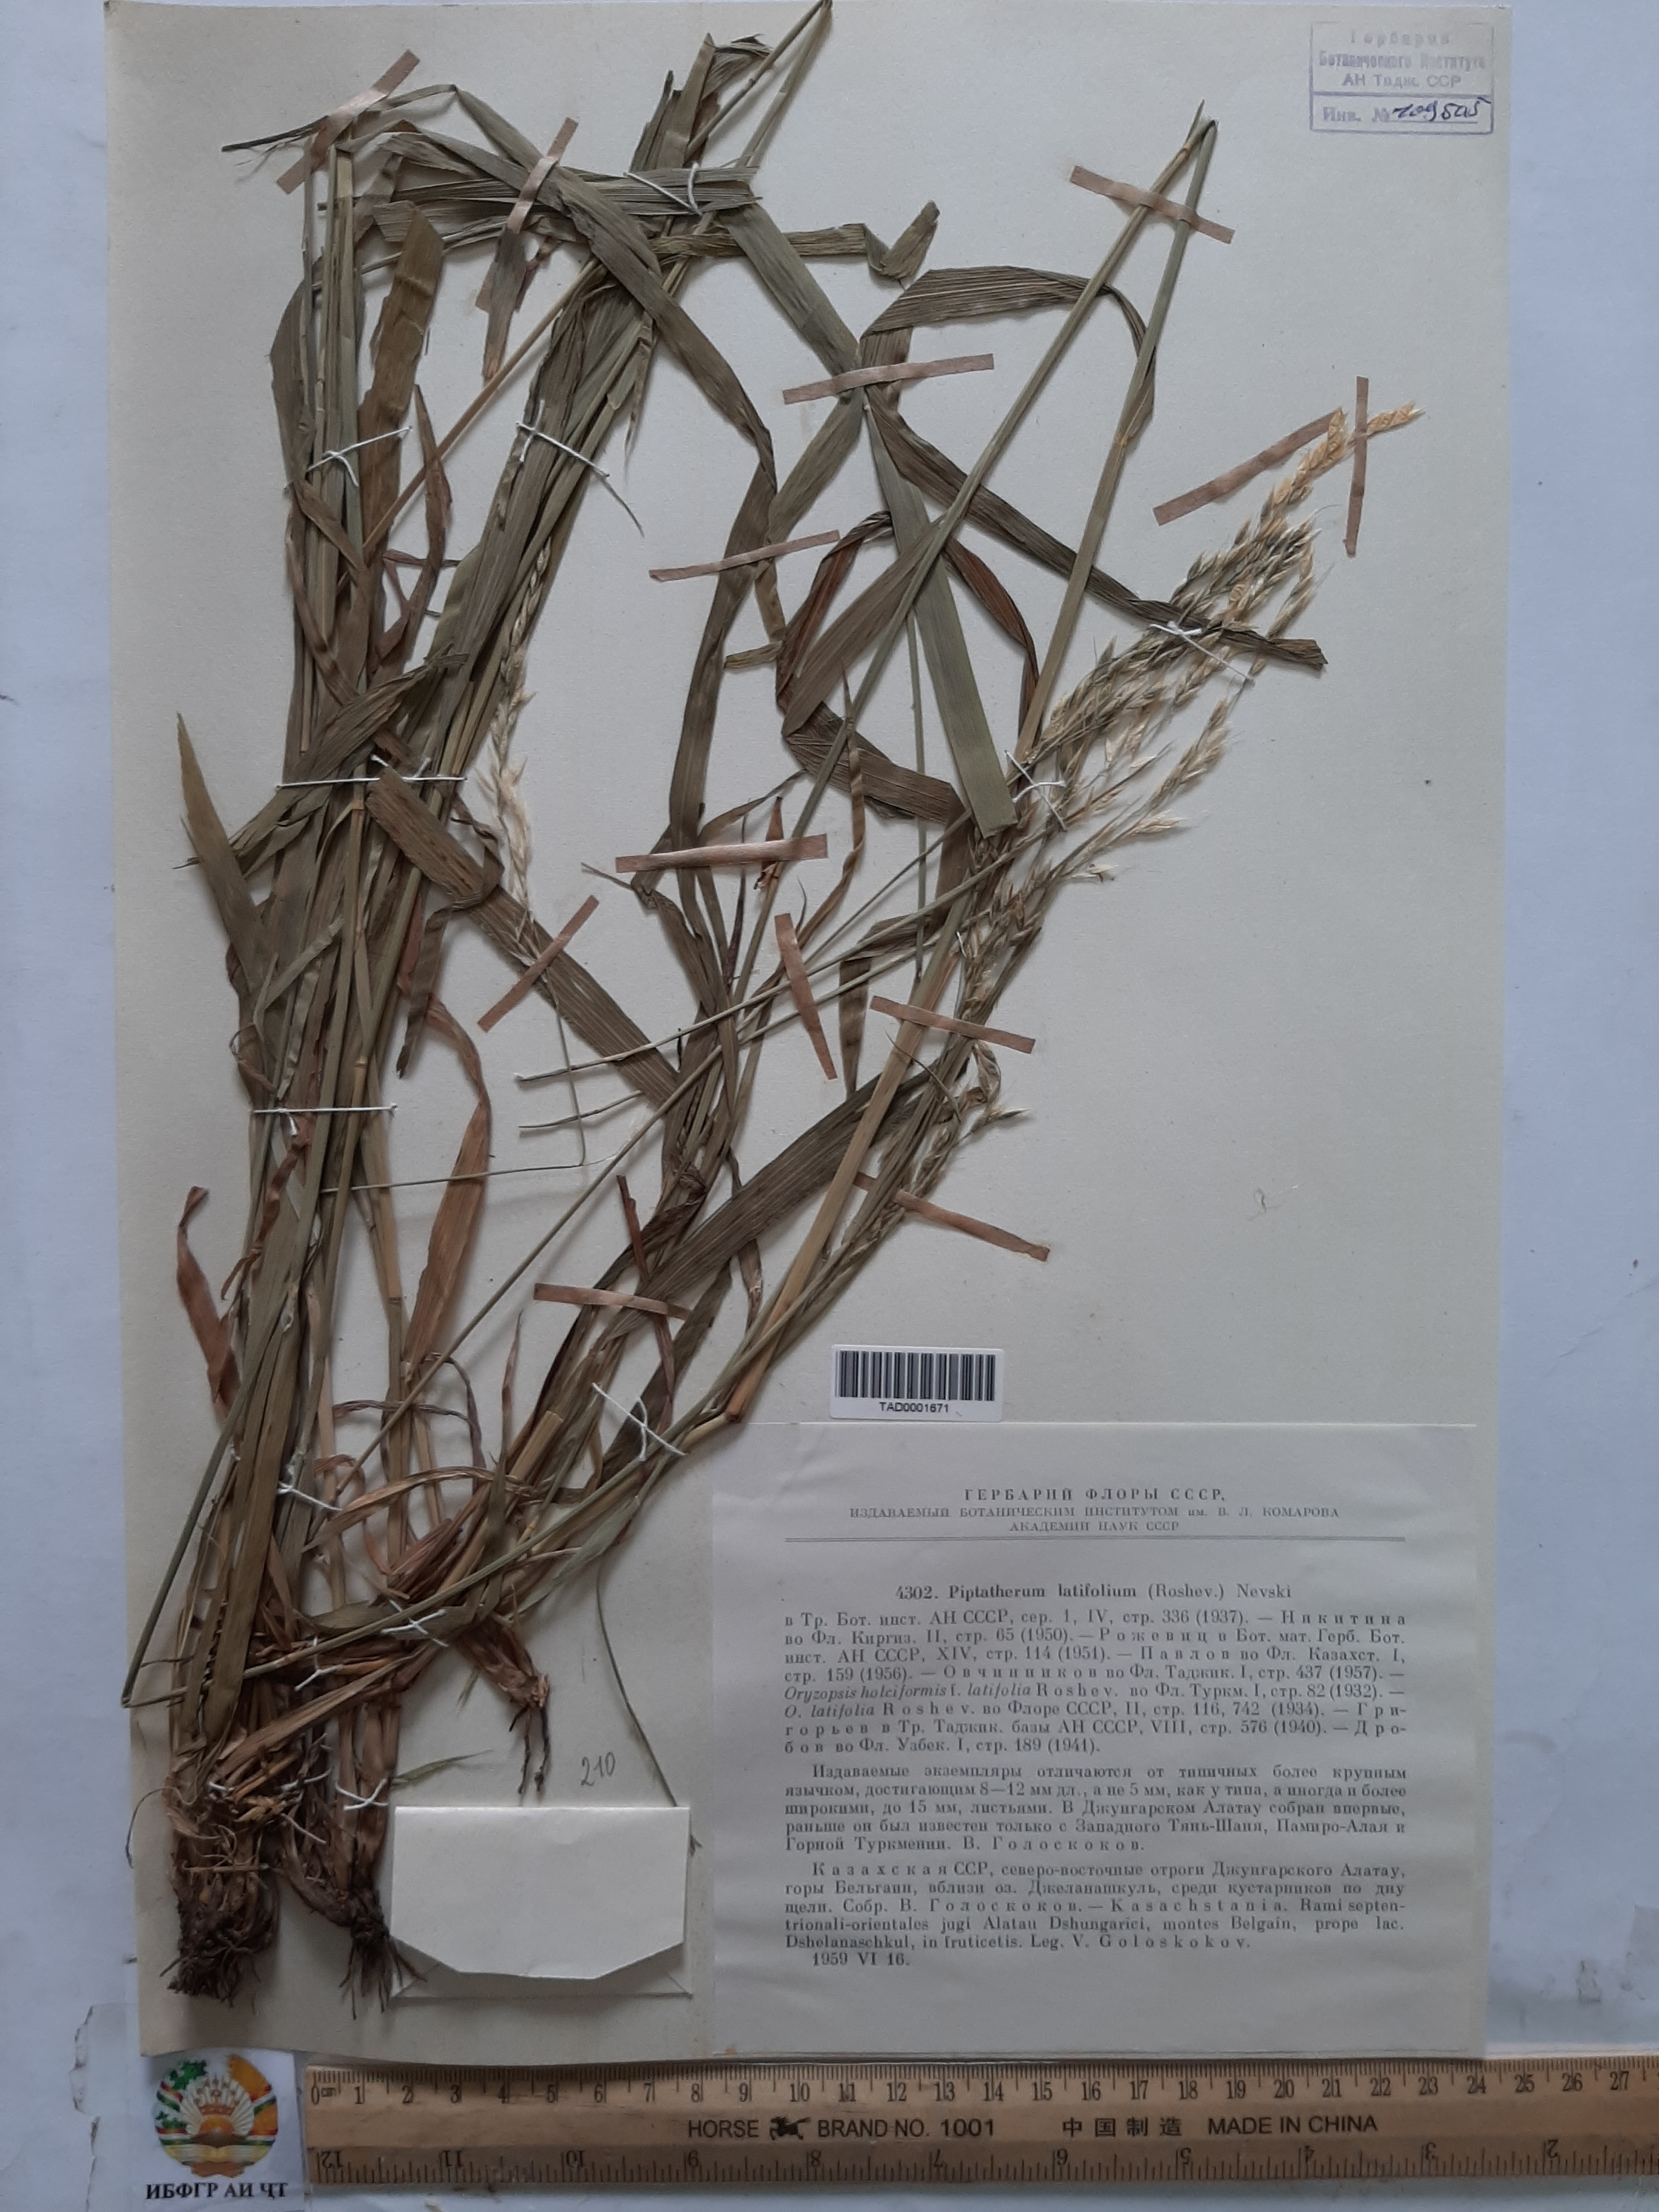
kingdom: Plantae
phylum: Tracheophyta
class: Liliopsida
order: Poales
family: Poaceae
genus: Piptatherum
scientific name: Piptatherum latifolium
